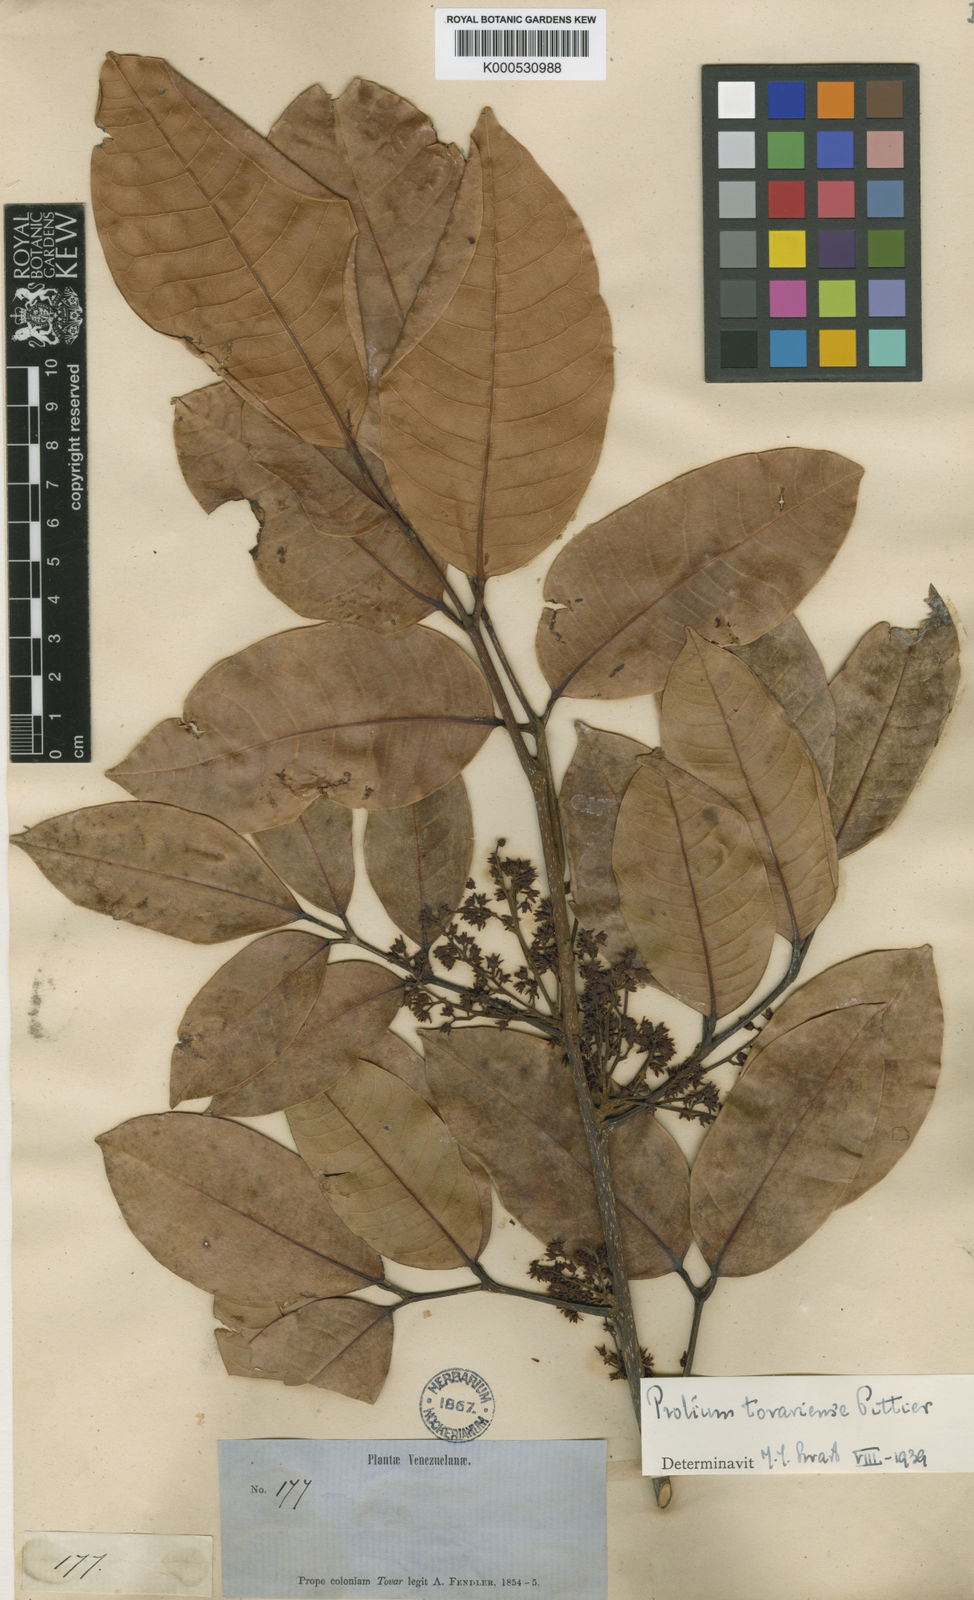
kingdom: Plantae
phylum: Tracheophyta
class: Magnoliopsida
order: Sapindales
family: Burseraceae
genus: Protium
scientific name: Protium tovarense
